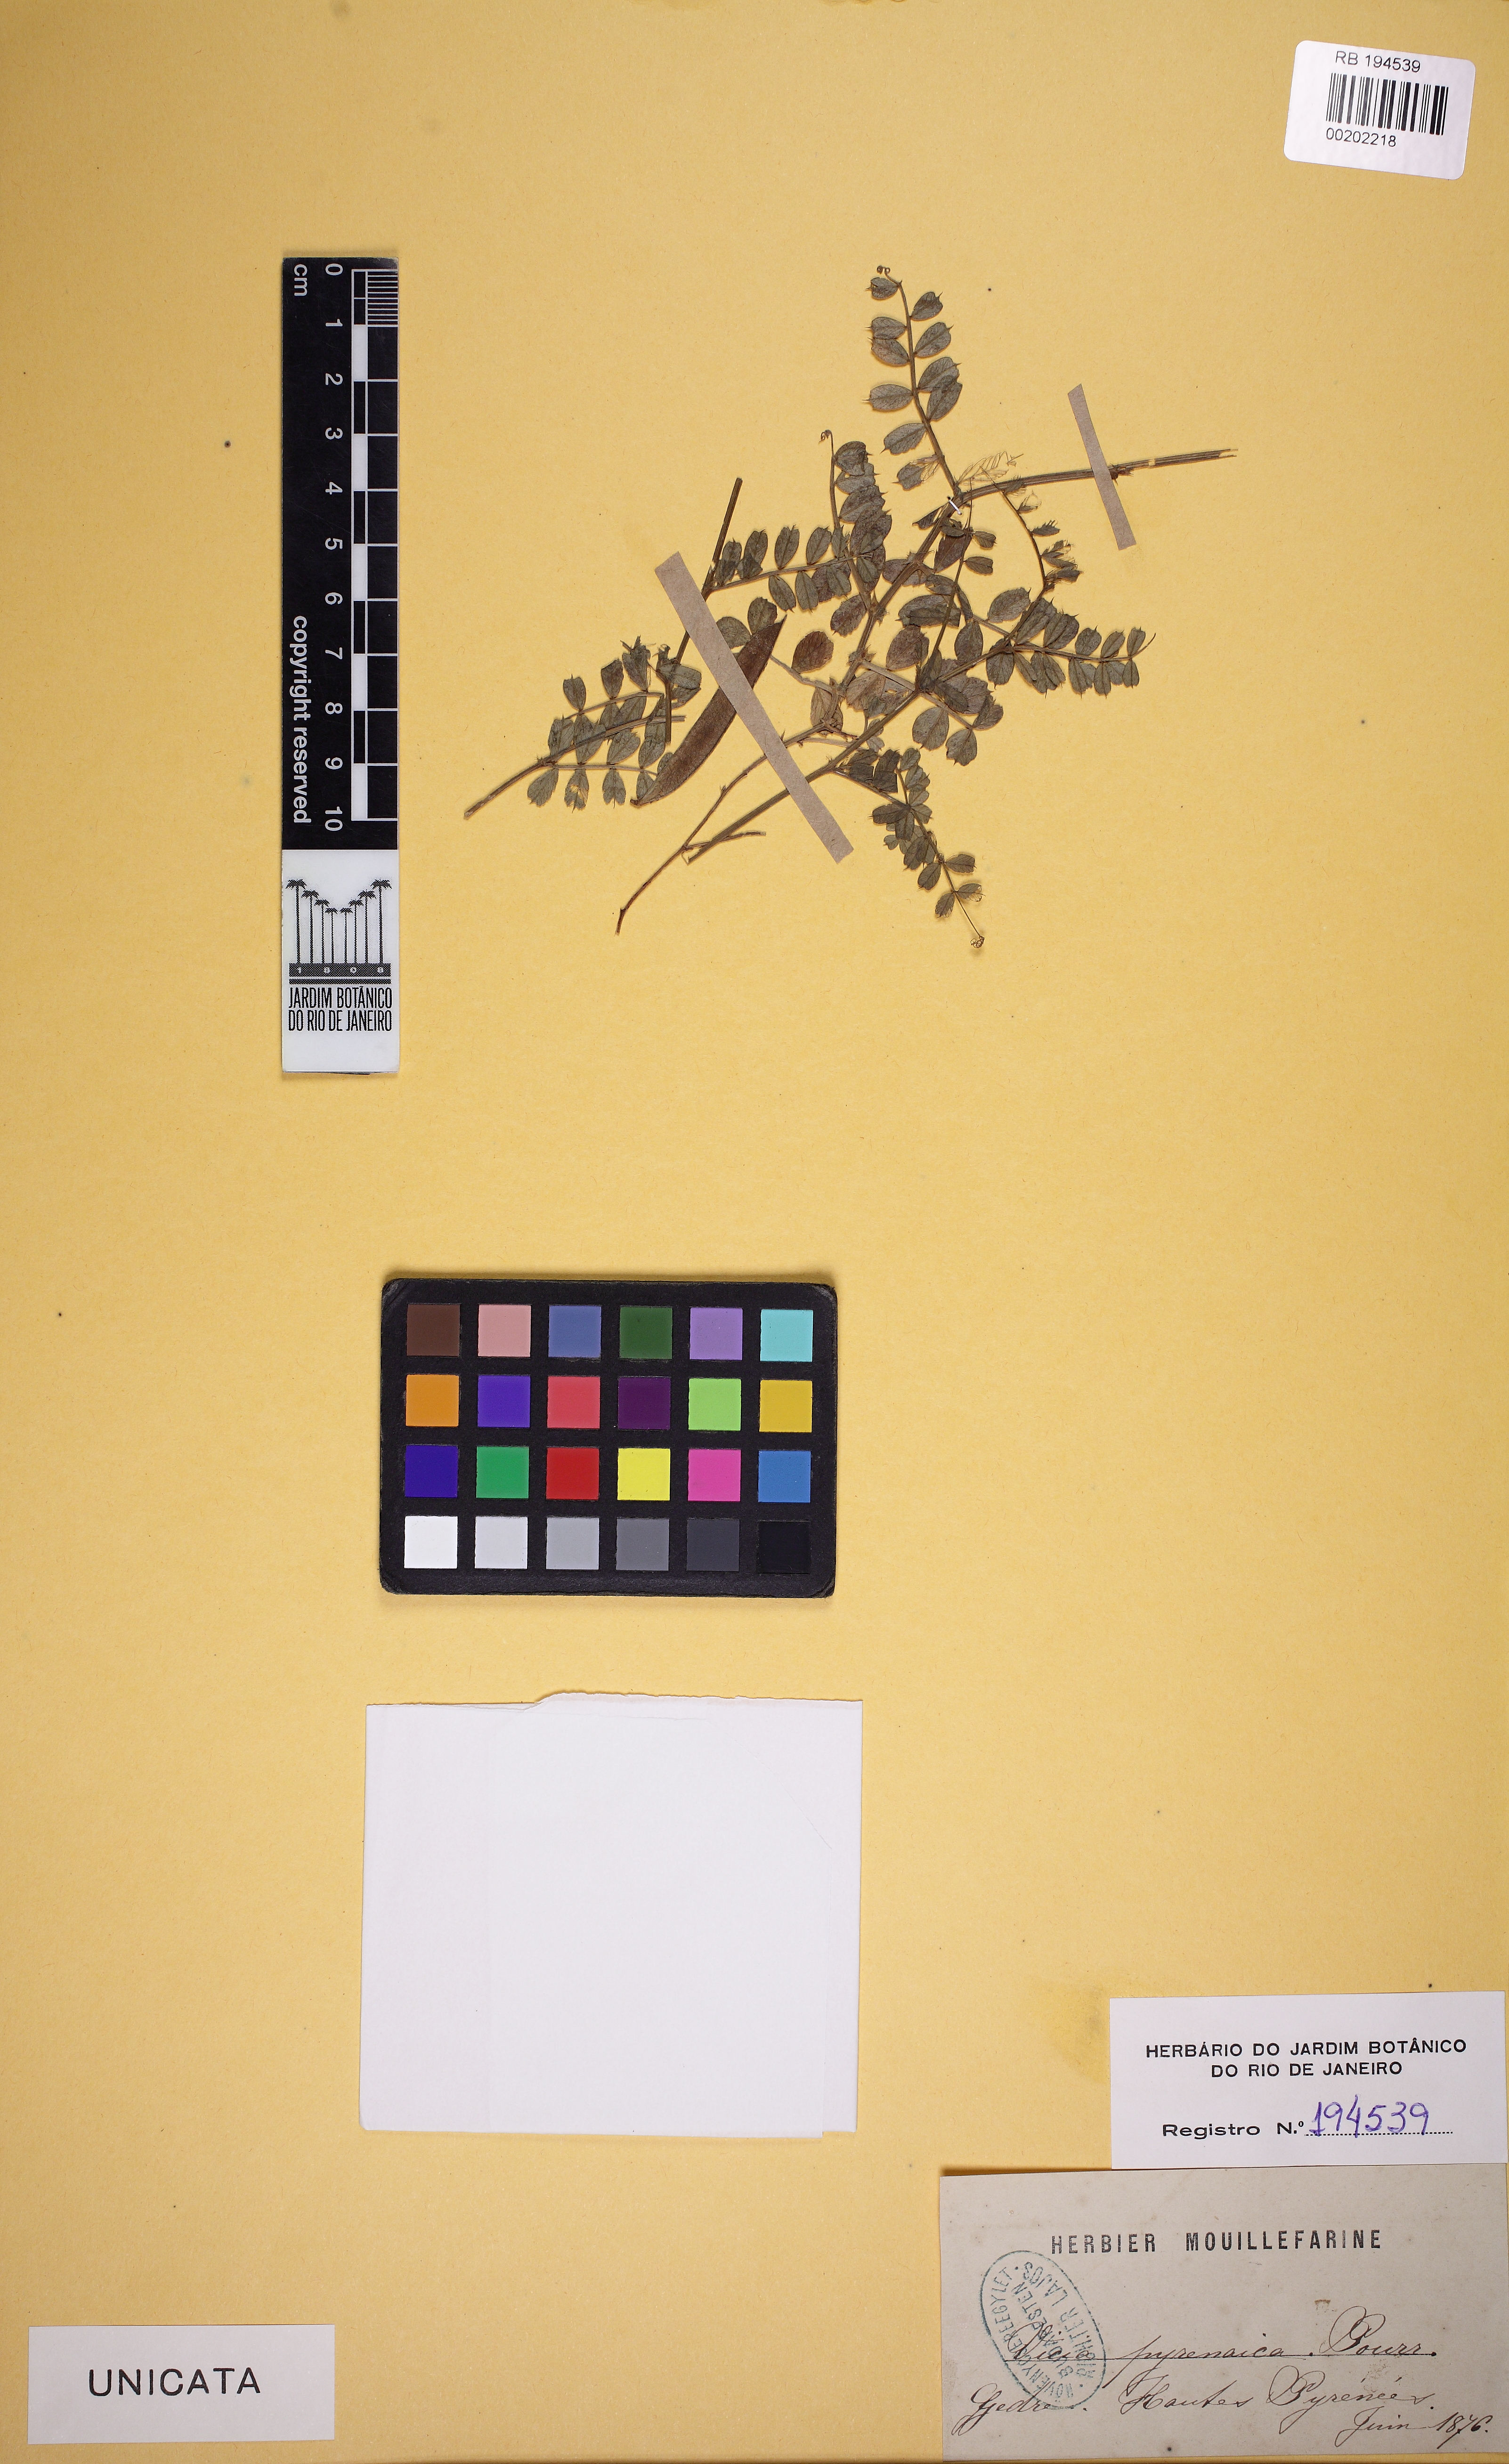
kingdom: Plantae
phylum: Tracheophyta
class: Magnoliopsida
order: Fabales
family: Fabaceae
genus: Vicia
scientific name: Vicia pyrenaica
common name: Pyrenean vetch
